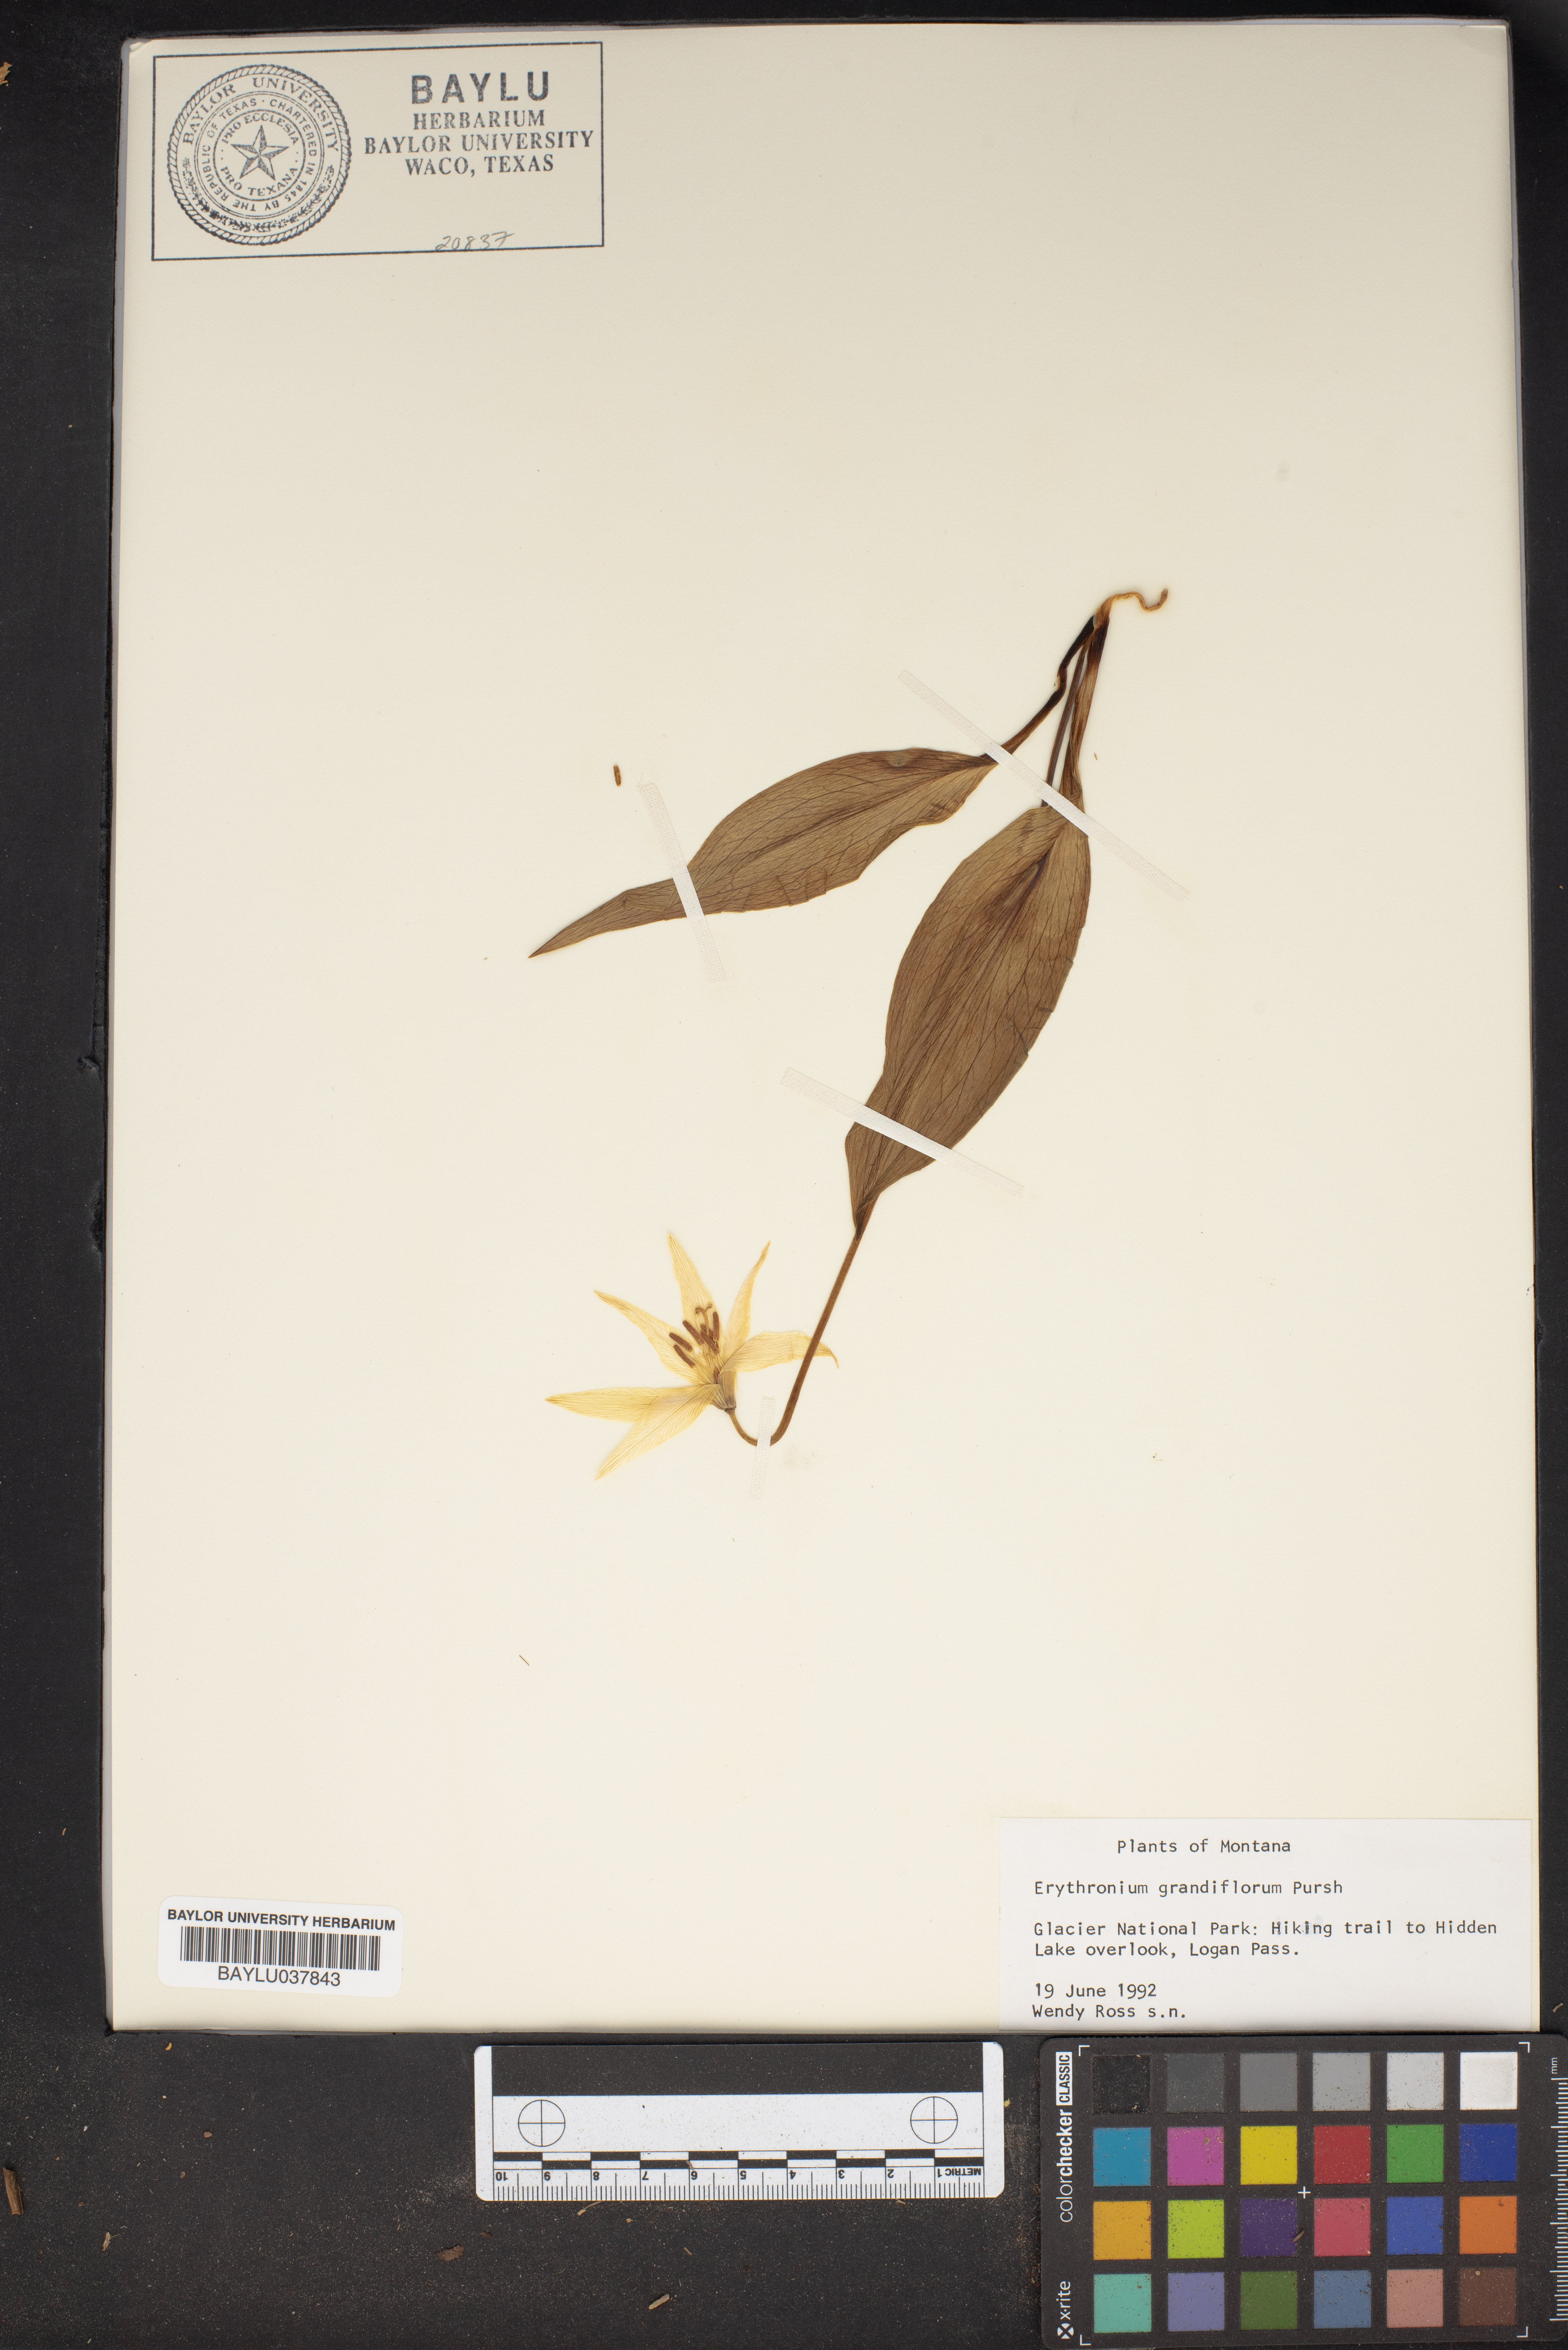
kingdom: Plantae
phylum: Tracheophyta
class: Liliopsida
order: Liliales
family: Liliaceae
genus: Erythronium
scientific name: Erythronium grandiflorum
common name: Avalanche-lily
